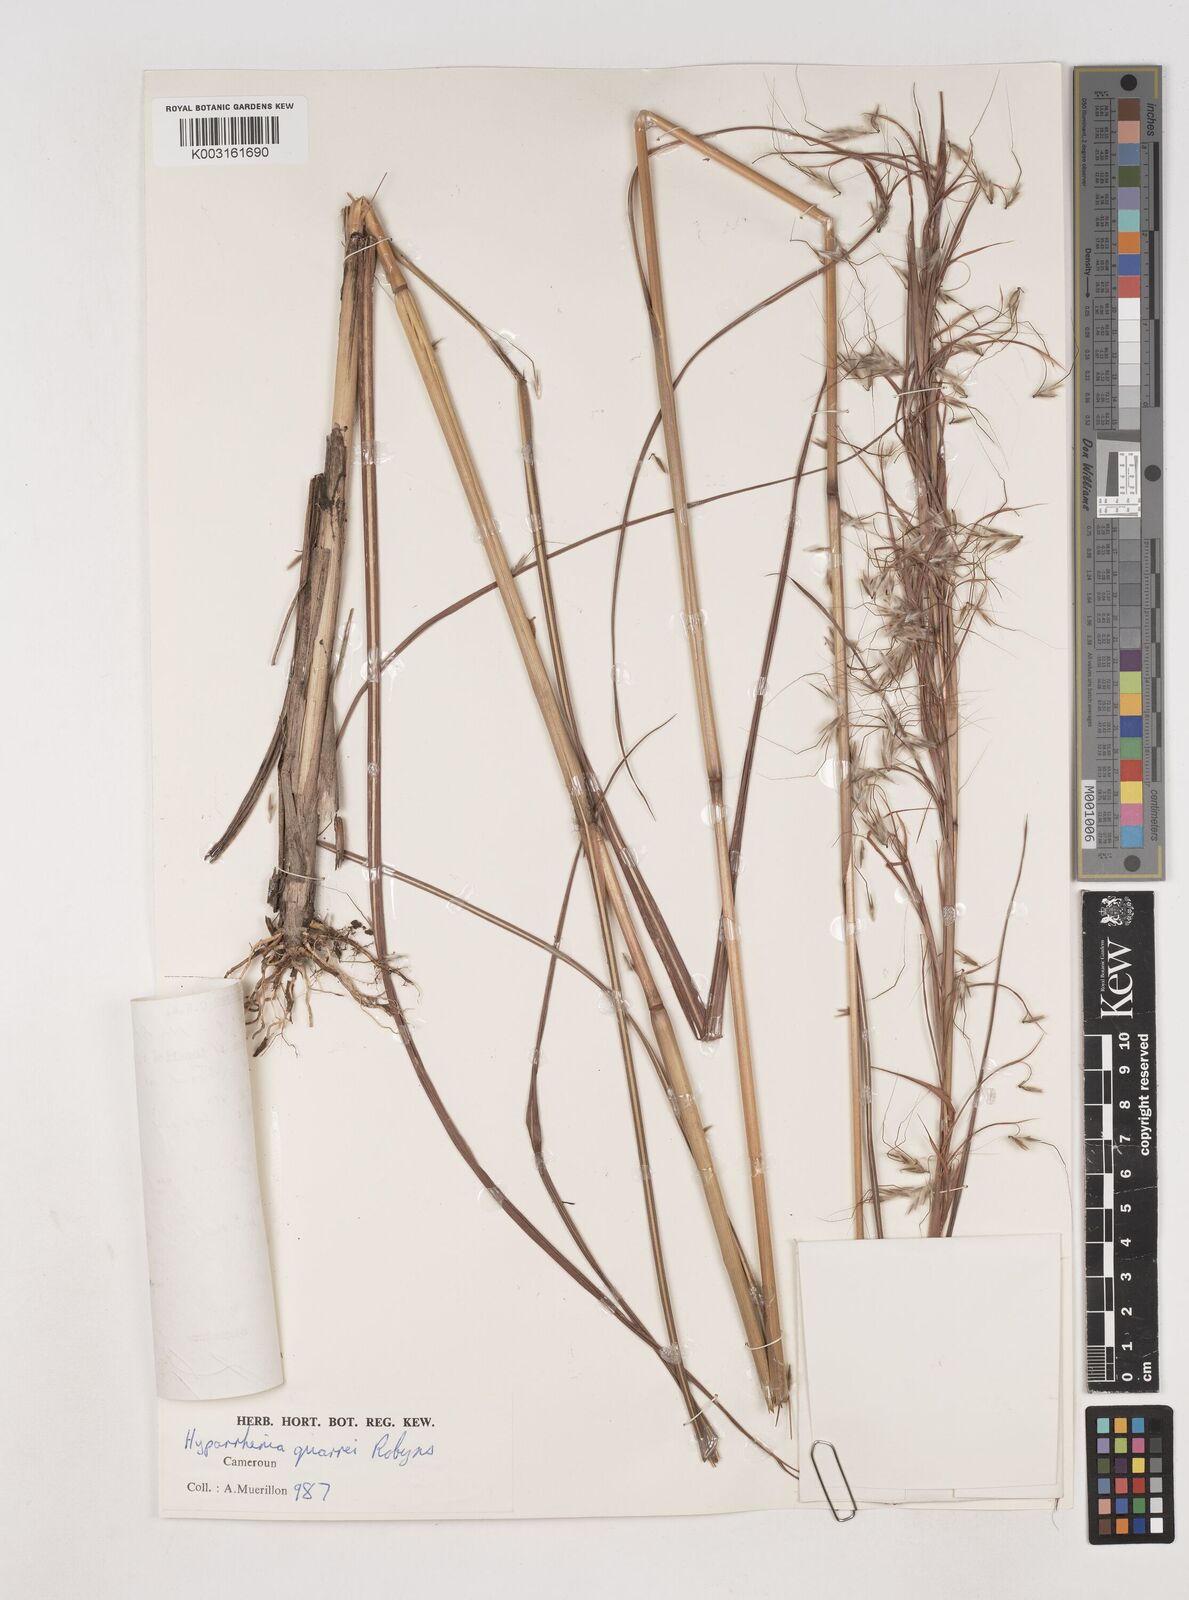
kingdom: Plantae
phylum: Tracheophyta
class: Liliopsida
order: Poales
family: Poaceae
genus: Hyparrhenia
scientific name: Hyparrhenia quarrei
